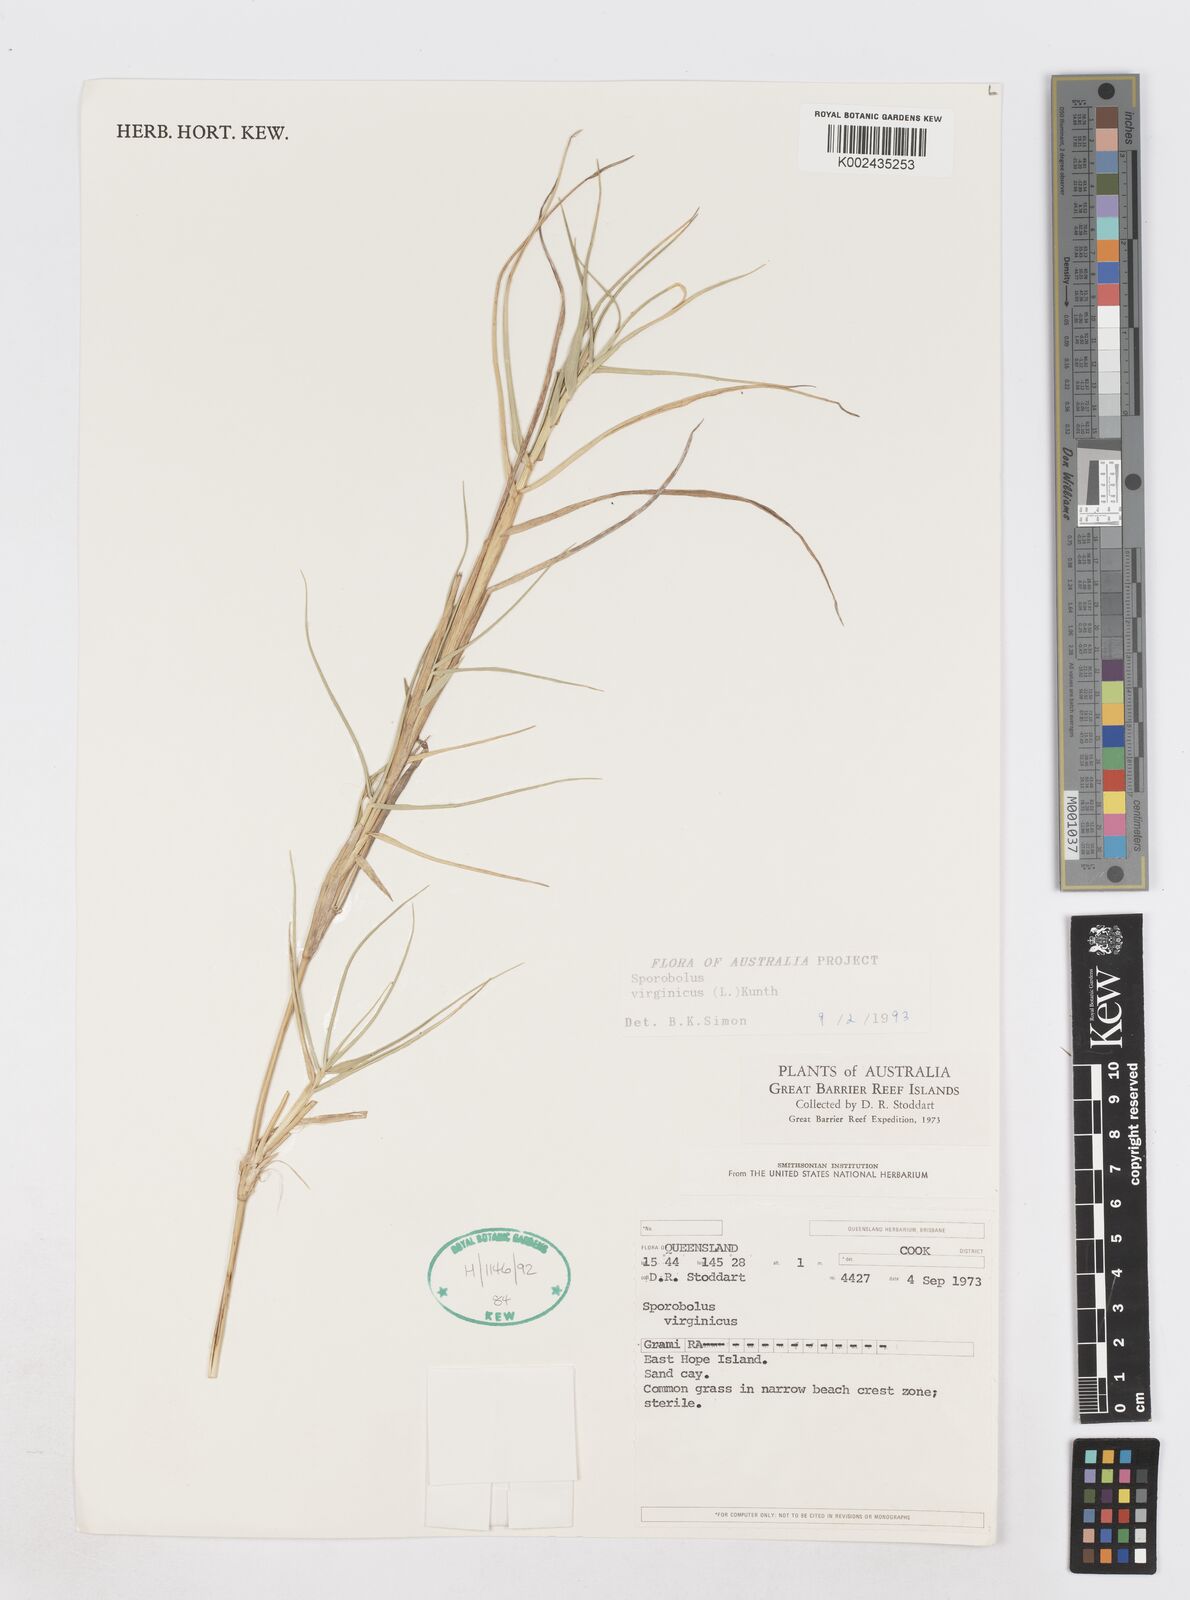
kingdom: Plantae
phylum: Tracheophyta
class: Liliopsida
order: Poales
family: Poaceae
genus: Sporobolus
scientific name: Sporobolus virginicus
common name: Beach dropseed
